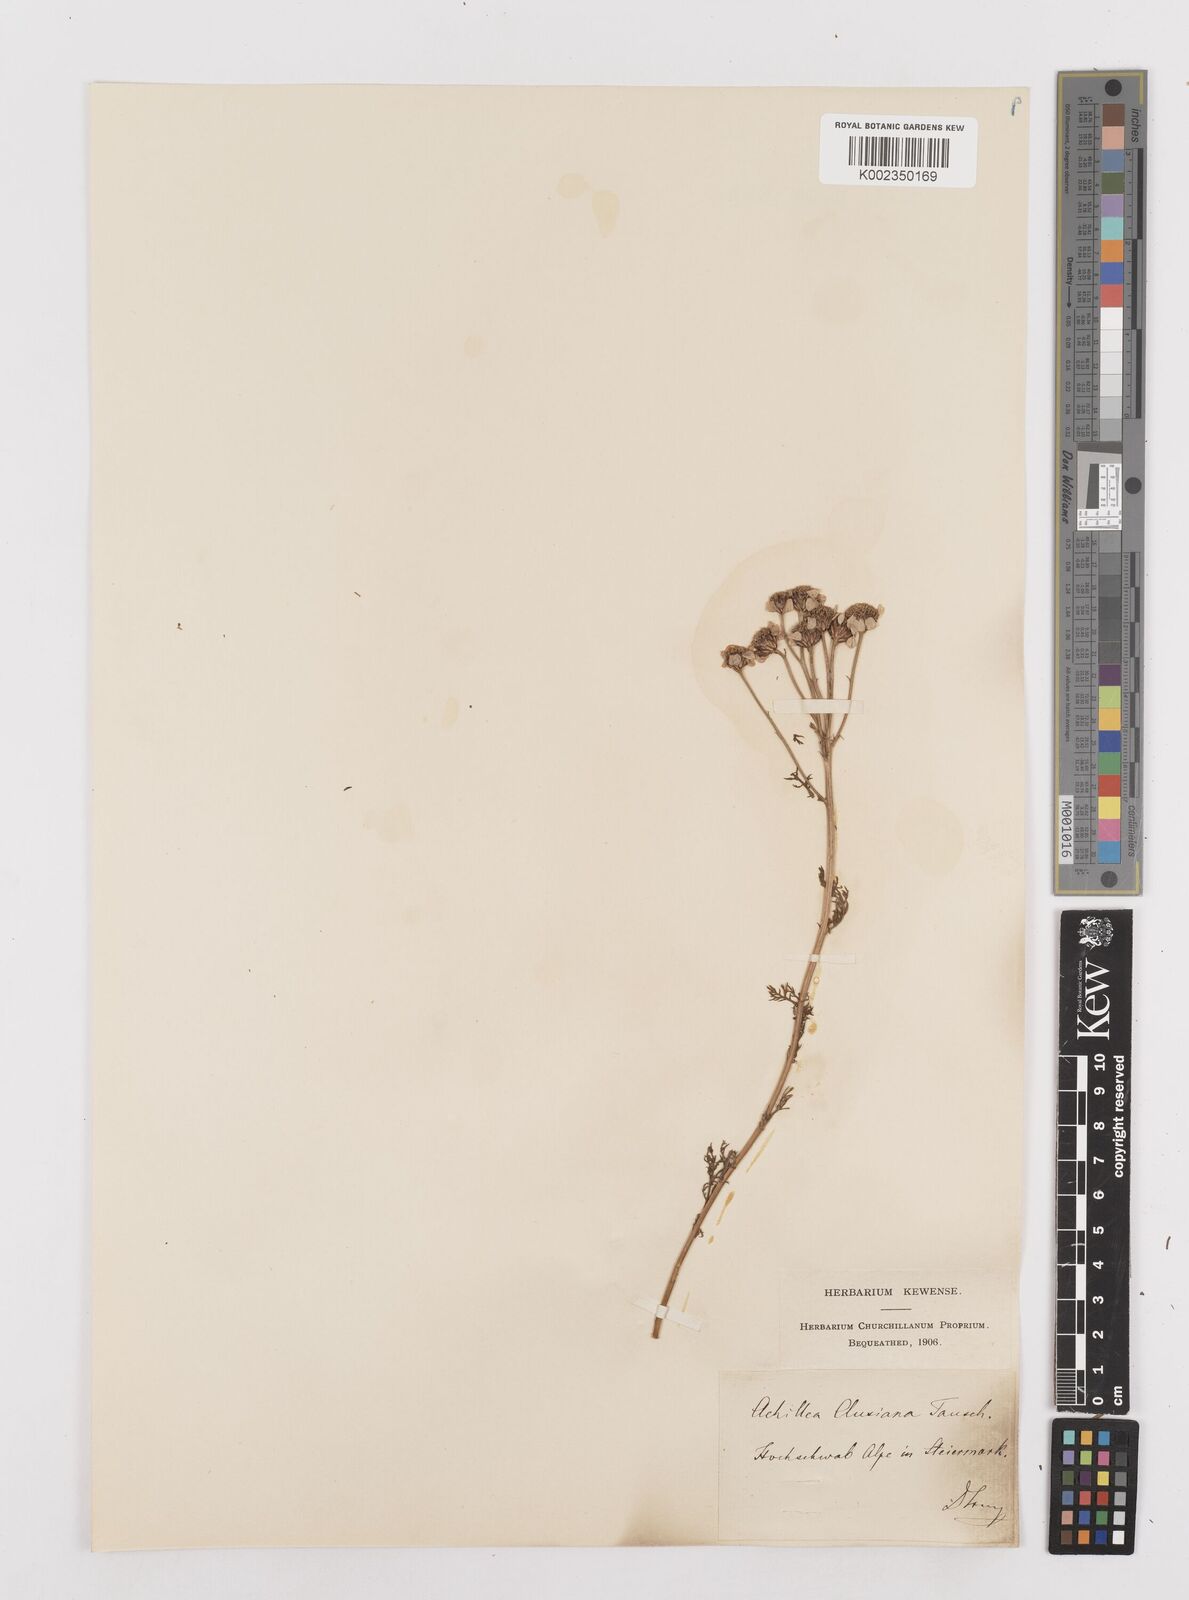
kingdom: Plantae
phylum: Tracheophyta
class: Magnoliopsida
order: Asterales
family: Asteraceae
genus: Achillea
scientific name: Achillea clusiana
